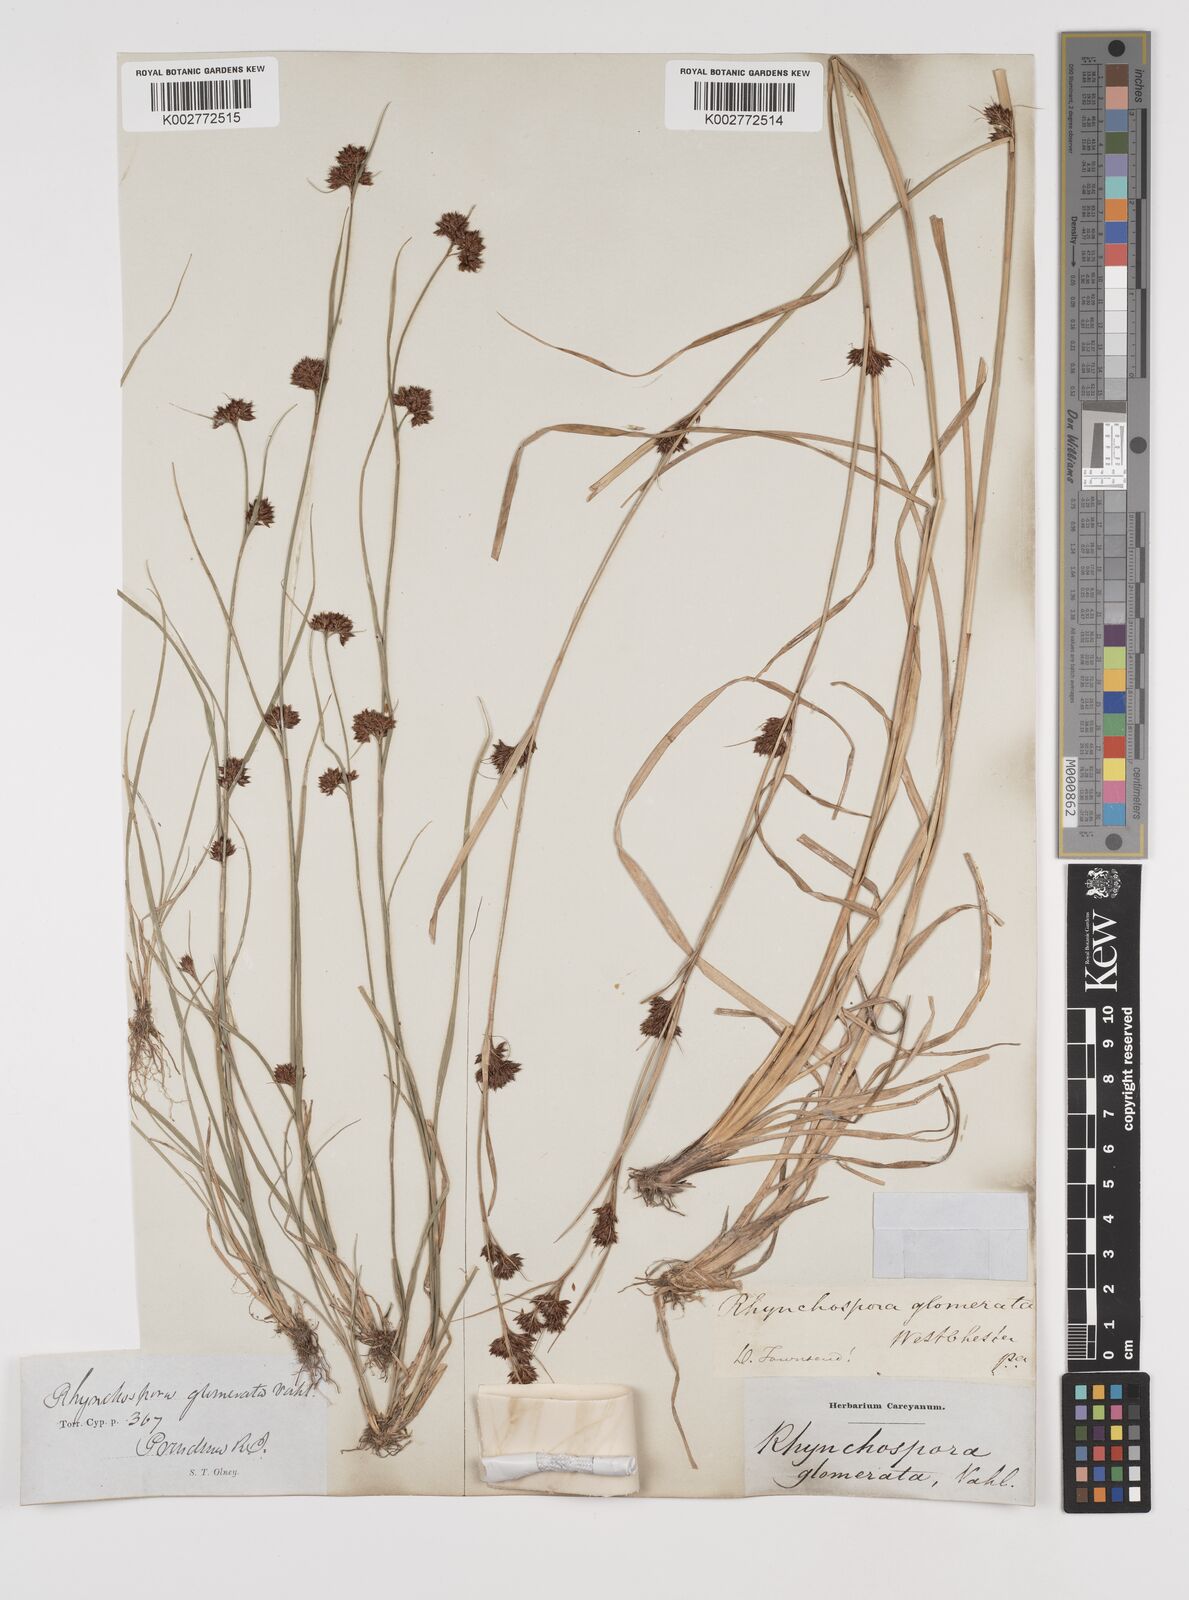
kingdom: Plantae
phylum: Tracheophyta
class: Liliopsida
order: Poales
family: Cyperaceae
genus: Rhynchospora
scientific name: Rhynchospora glomerata
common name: Cluster beak sedge
